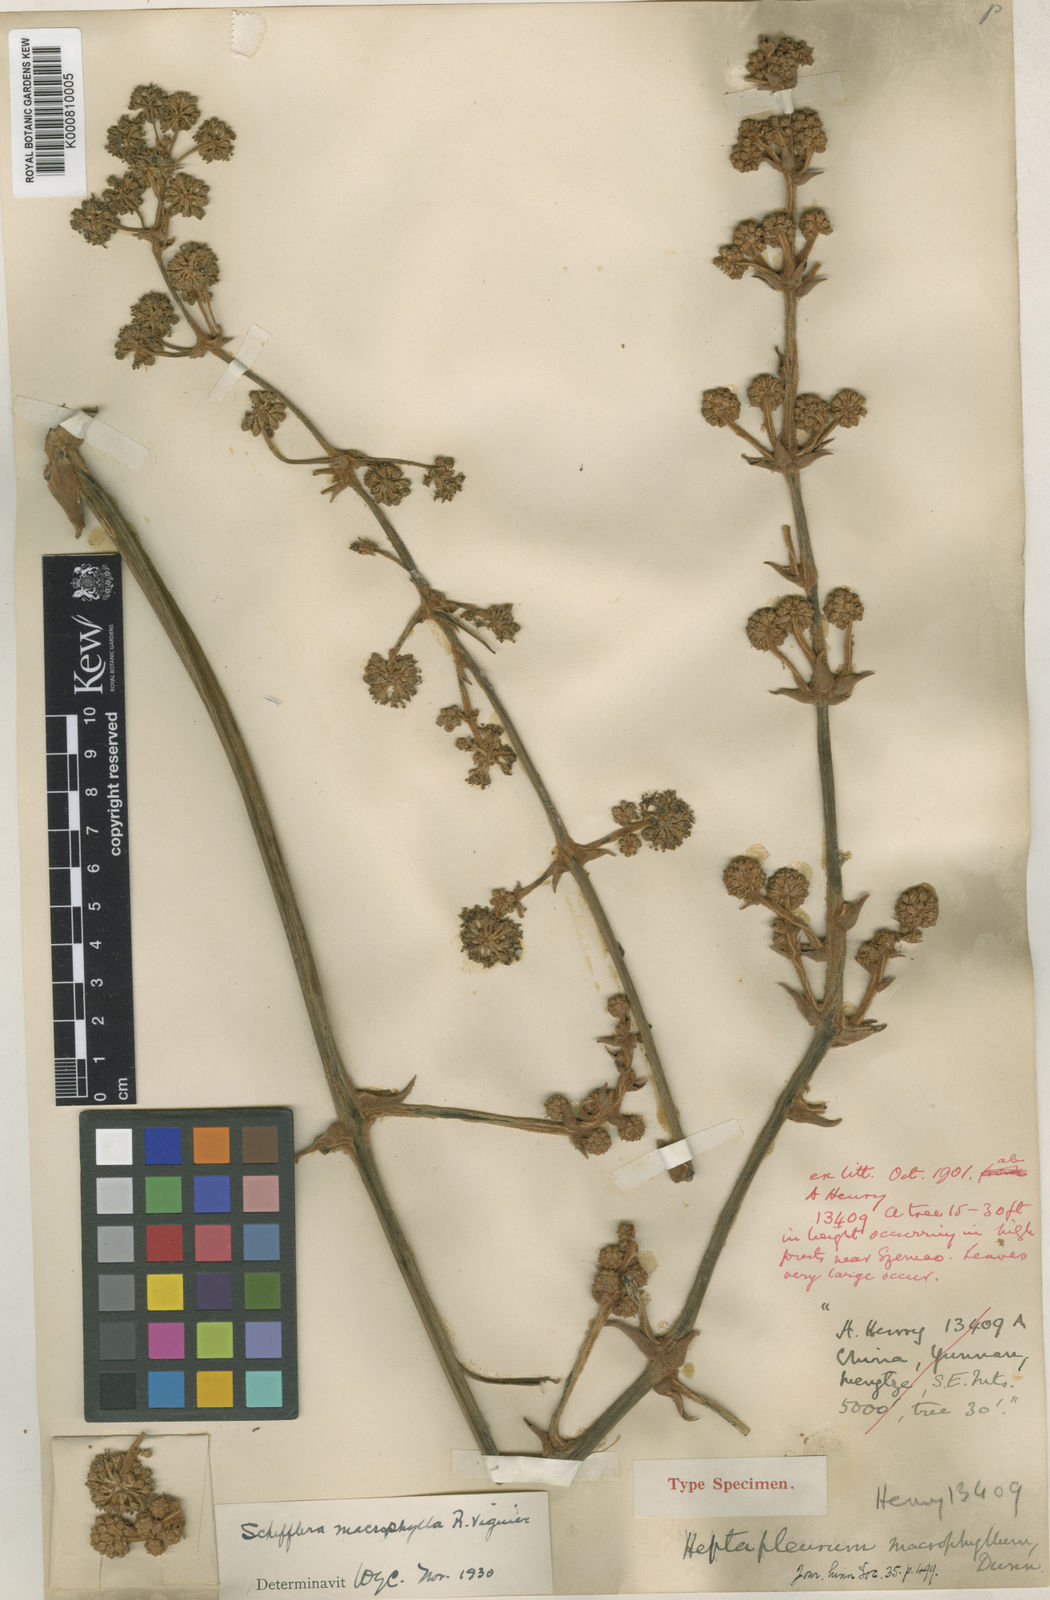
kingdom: Plantae
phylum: Tracheophyta
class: Magnoliopsida
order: Apiales
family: Araliaceae
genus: Heptapleurum
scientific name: Heptapleurum macrophyllum
